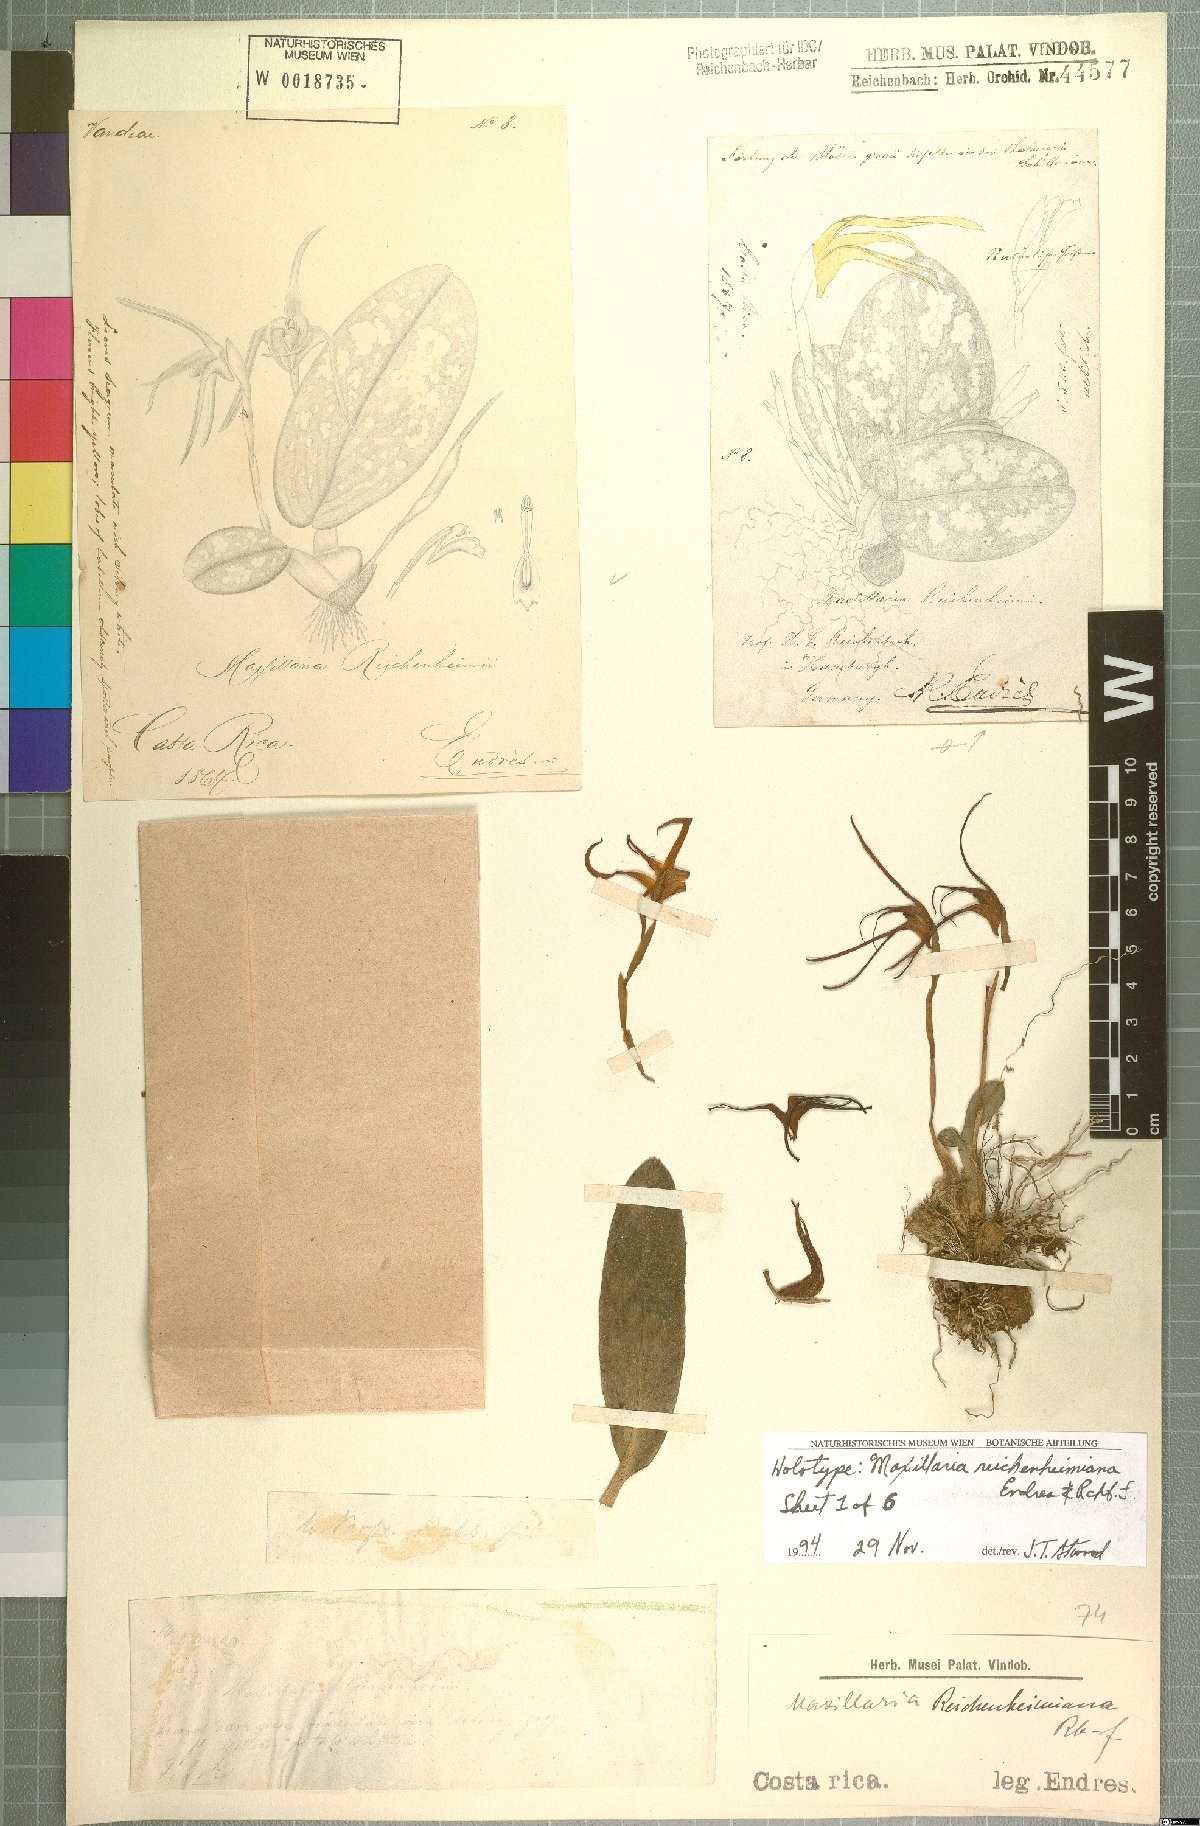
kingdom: Plantae
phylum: Tracheophyta
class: Liliopsida
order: Asparagales
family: Orchidaceae
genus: Maxillaria
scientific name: Maxillaria reichenheimiana
